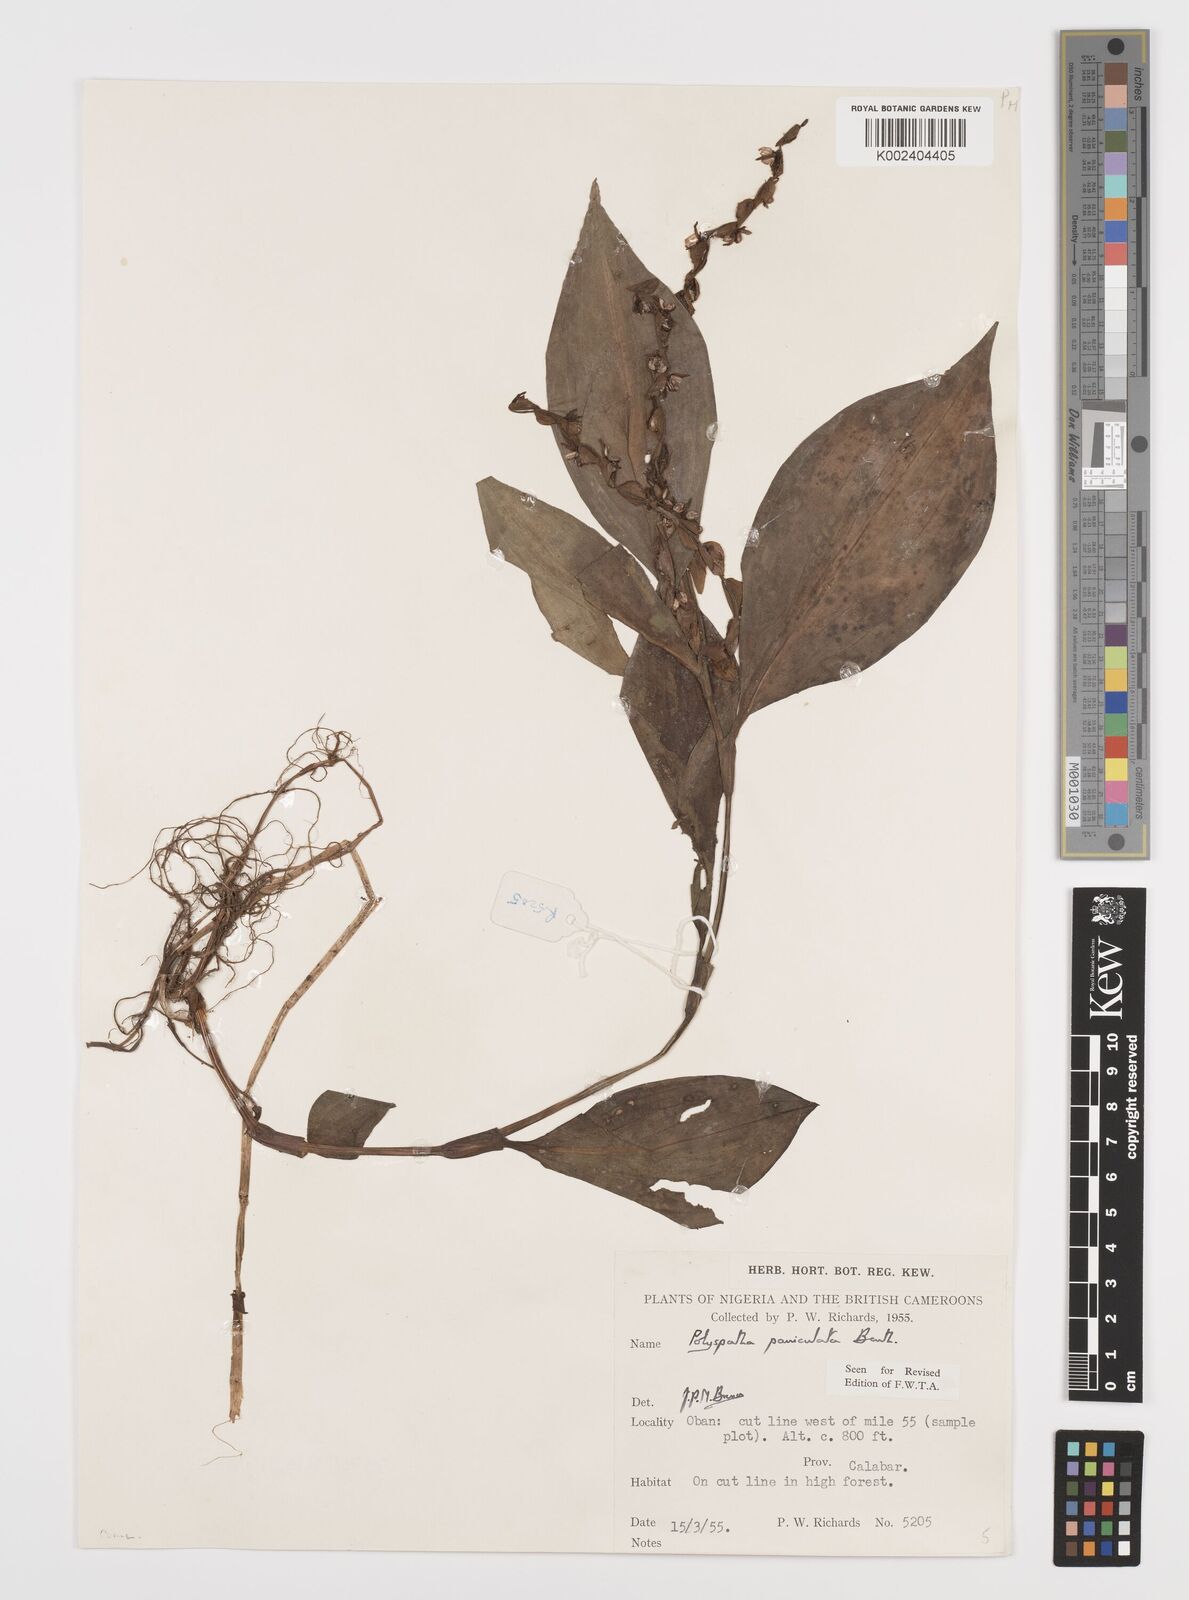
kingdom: Plantae
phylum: Tracheophyta
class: Liliopsida
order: Commelinales
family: Commelinaceae
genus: Polyspatha
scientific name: Polyspatha paniculata
